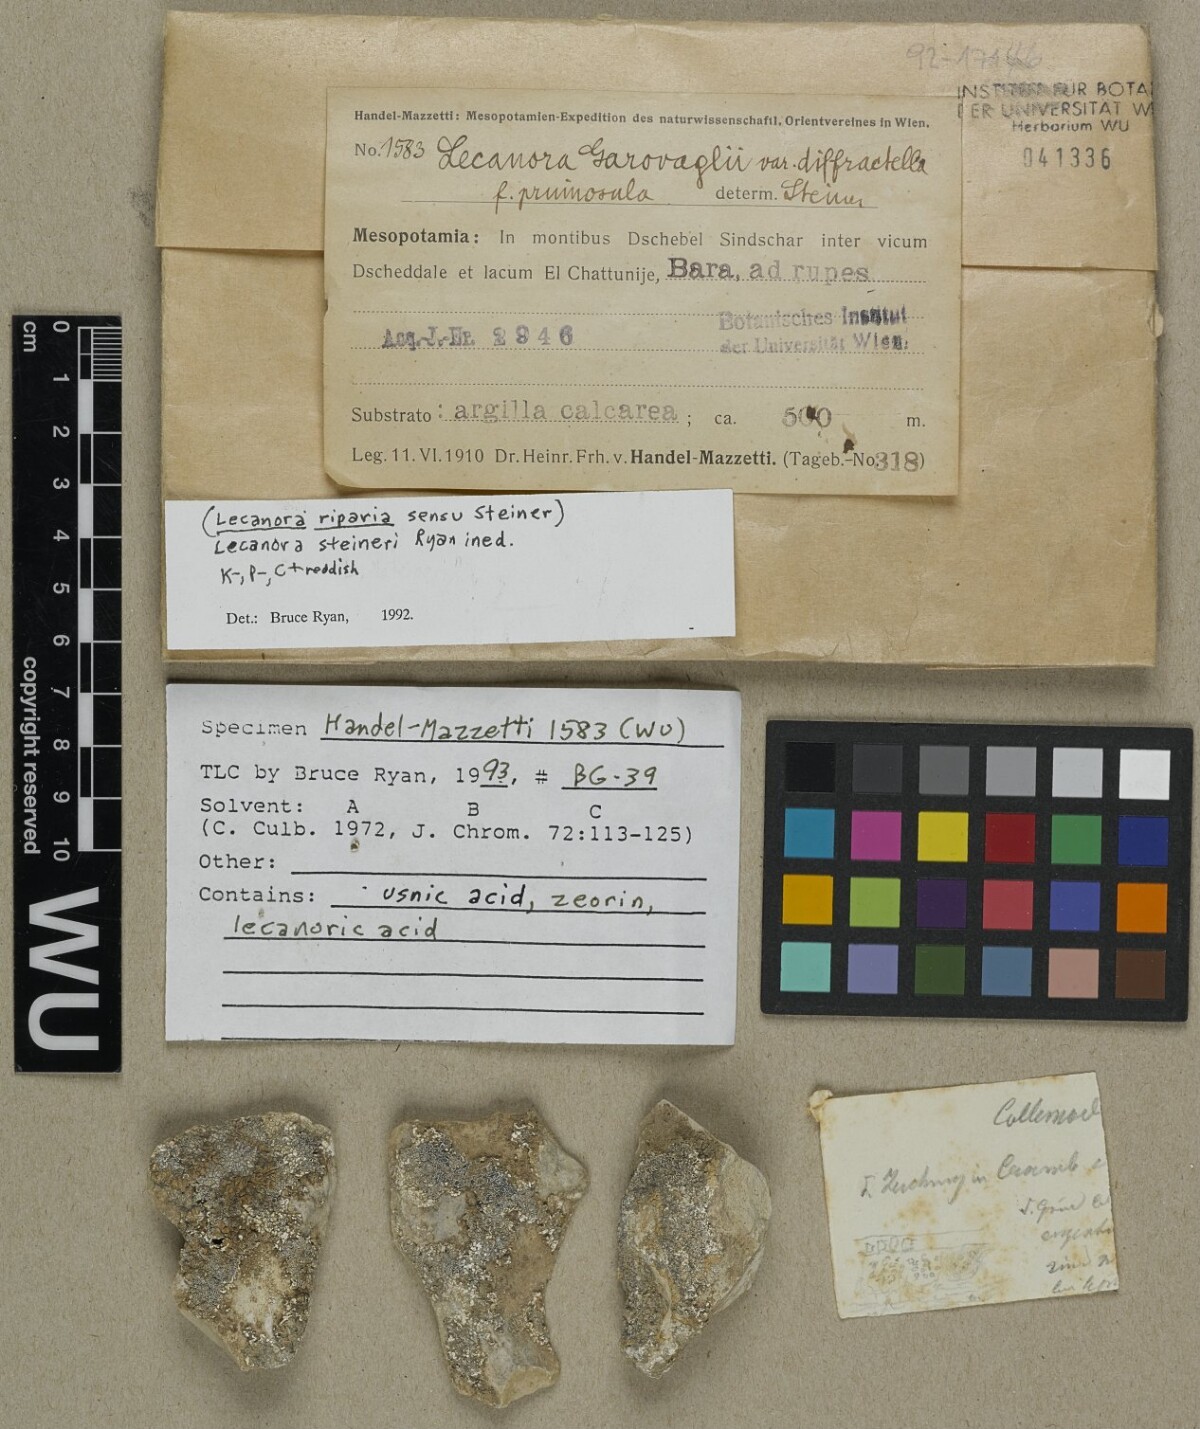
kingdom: Fungi
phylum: Ascomycota
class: Lecanoromycetes
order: Lecanorales
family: Lecanoraceae
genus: Protoparmeliopsis
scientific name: Protoparmeliopsis garovaglii
